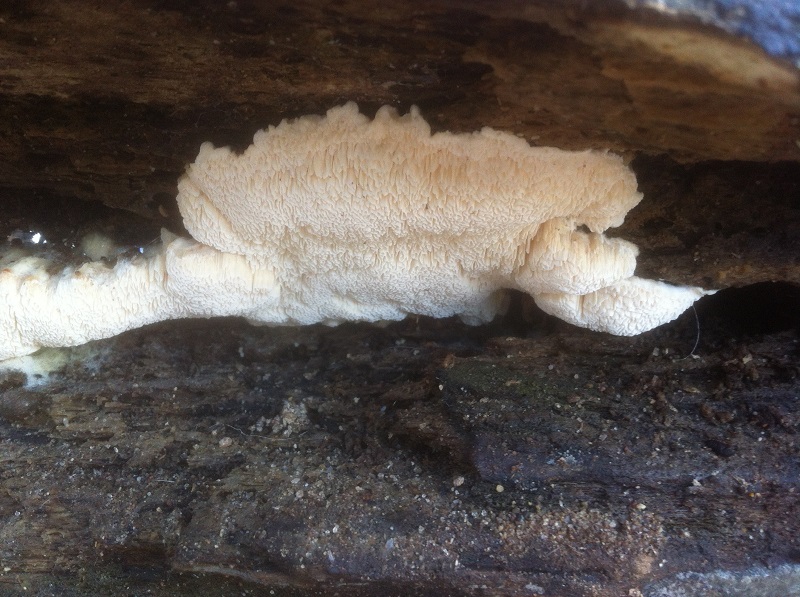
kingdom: Fungi
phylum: Basidiomycota
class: Agaricomycetes
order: Polyporales
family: Cerrenaceae
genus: Pseudospongipellis
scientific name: Pseudospongipellis delectans
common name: labyrint-skumporesvamp
